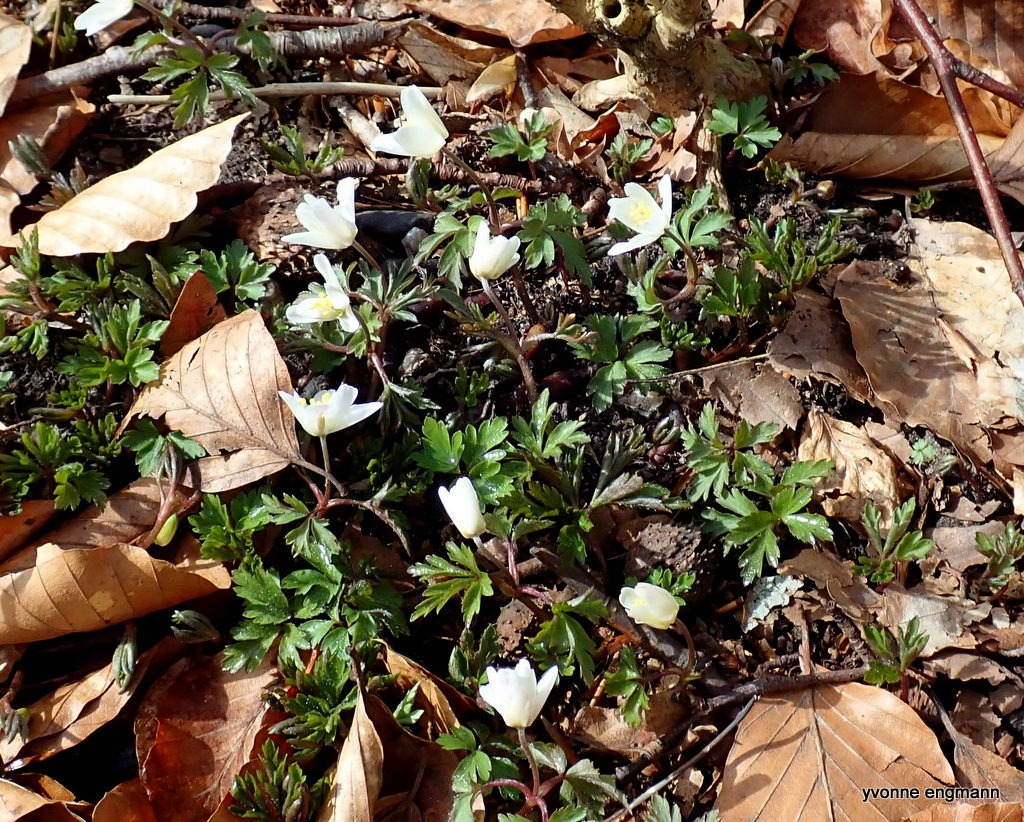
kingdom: Plantae
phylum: Tracheophyta
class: Magnoliopsida
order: Ranunculales
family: Ranunculaceae
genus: Anemone
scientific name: Anemone nemorosa
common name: Hvid anemone
